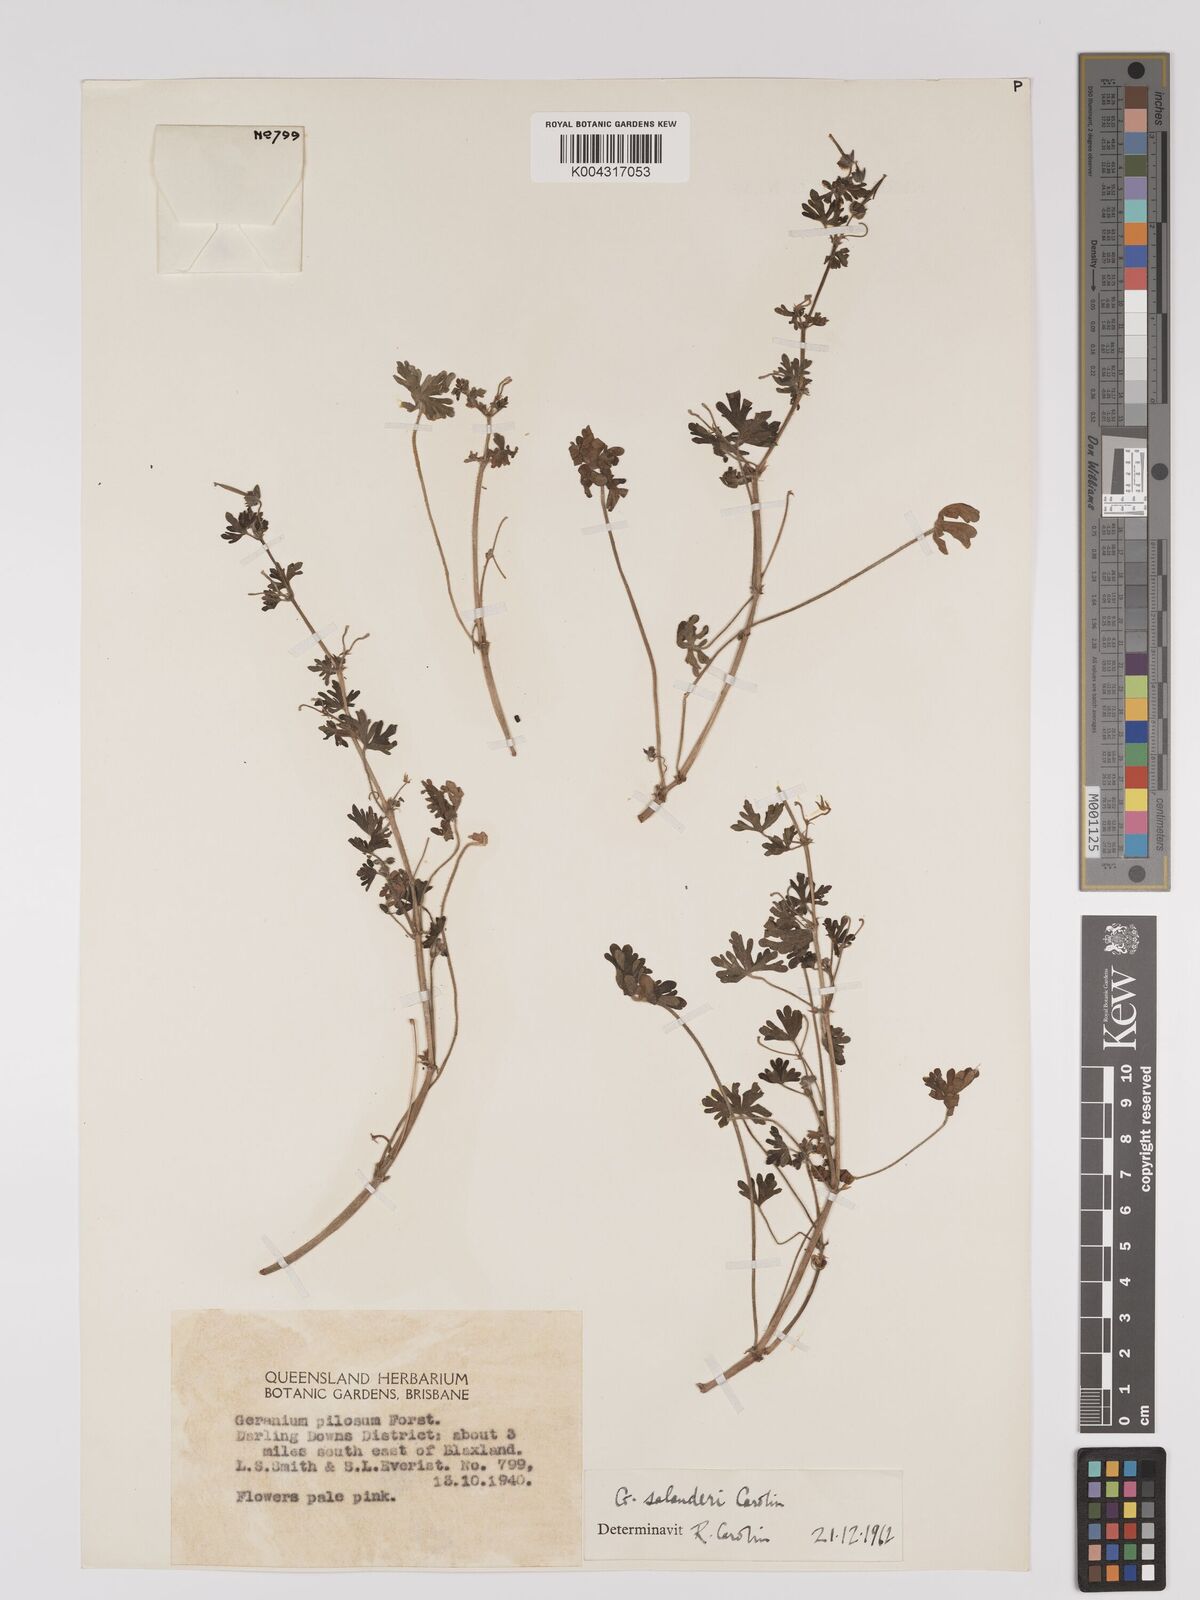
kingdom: Plantae
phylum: Tracheophyta
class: Magnoliopsida
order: Geraniales
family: Geraniaceae
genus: Geranium
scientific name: Geranium solanderi
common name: Solander's geranium
